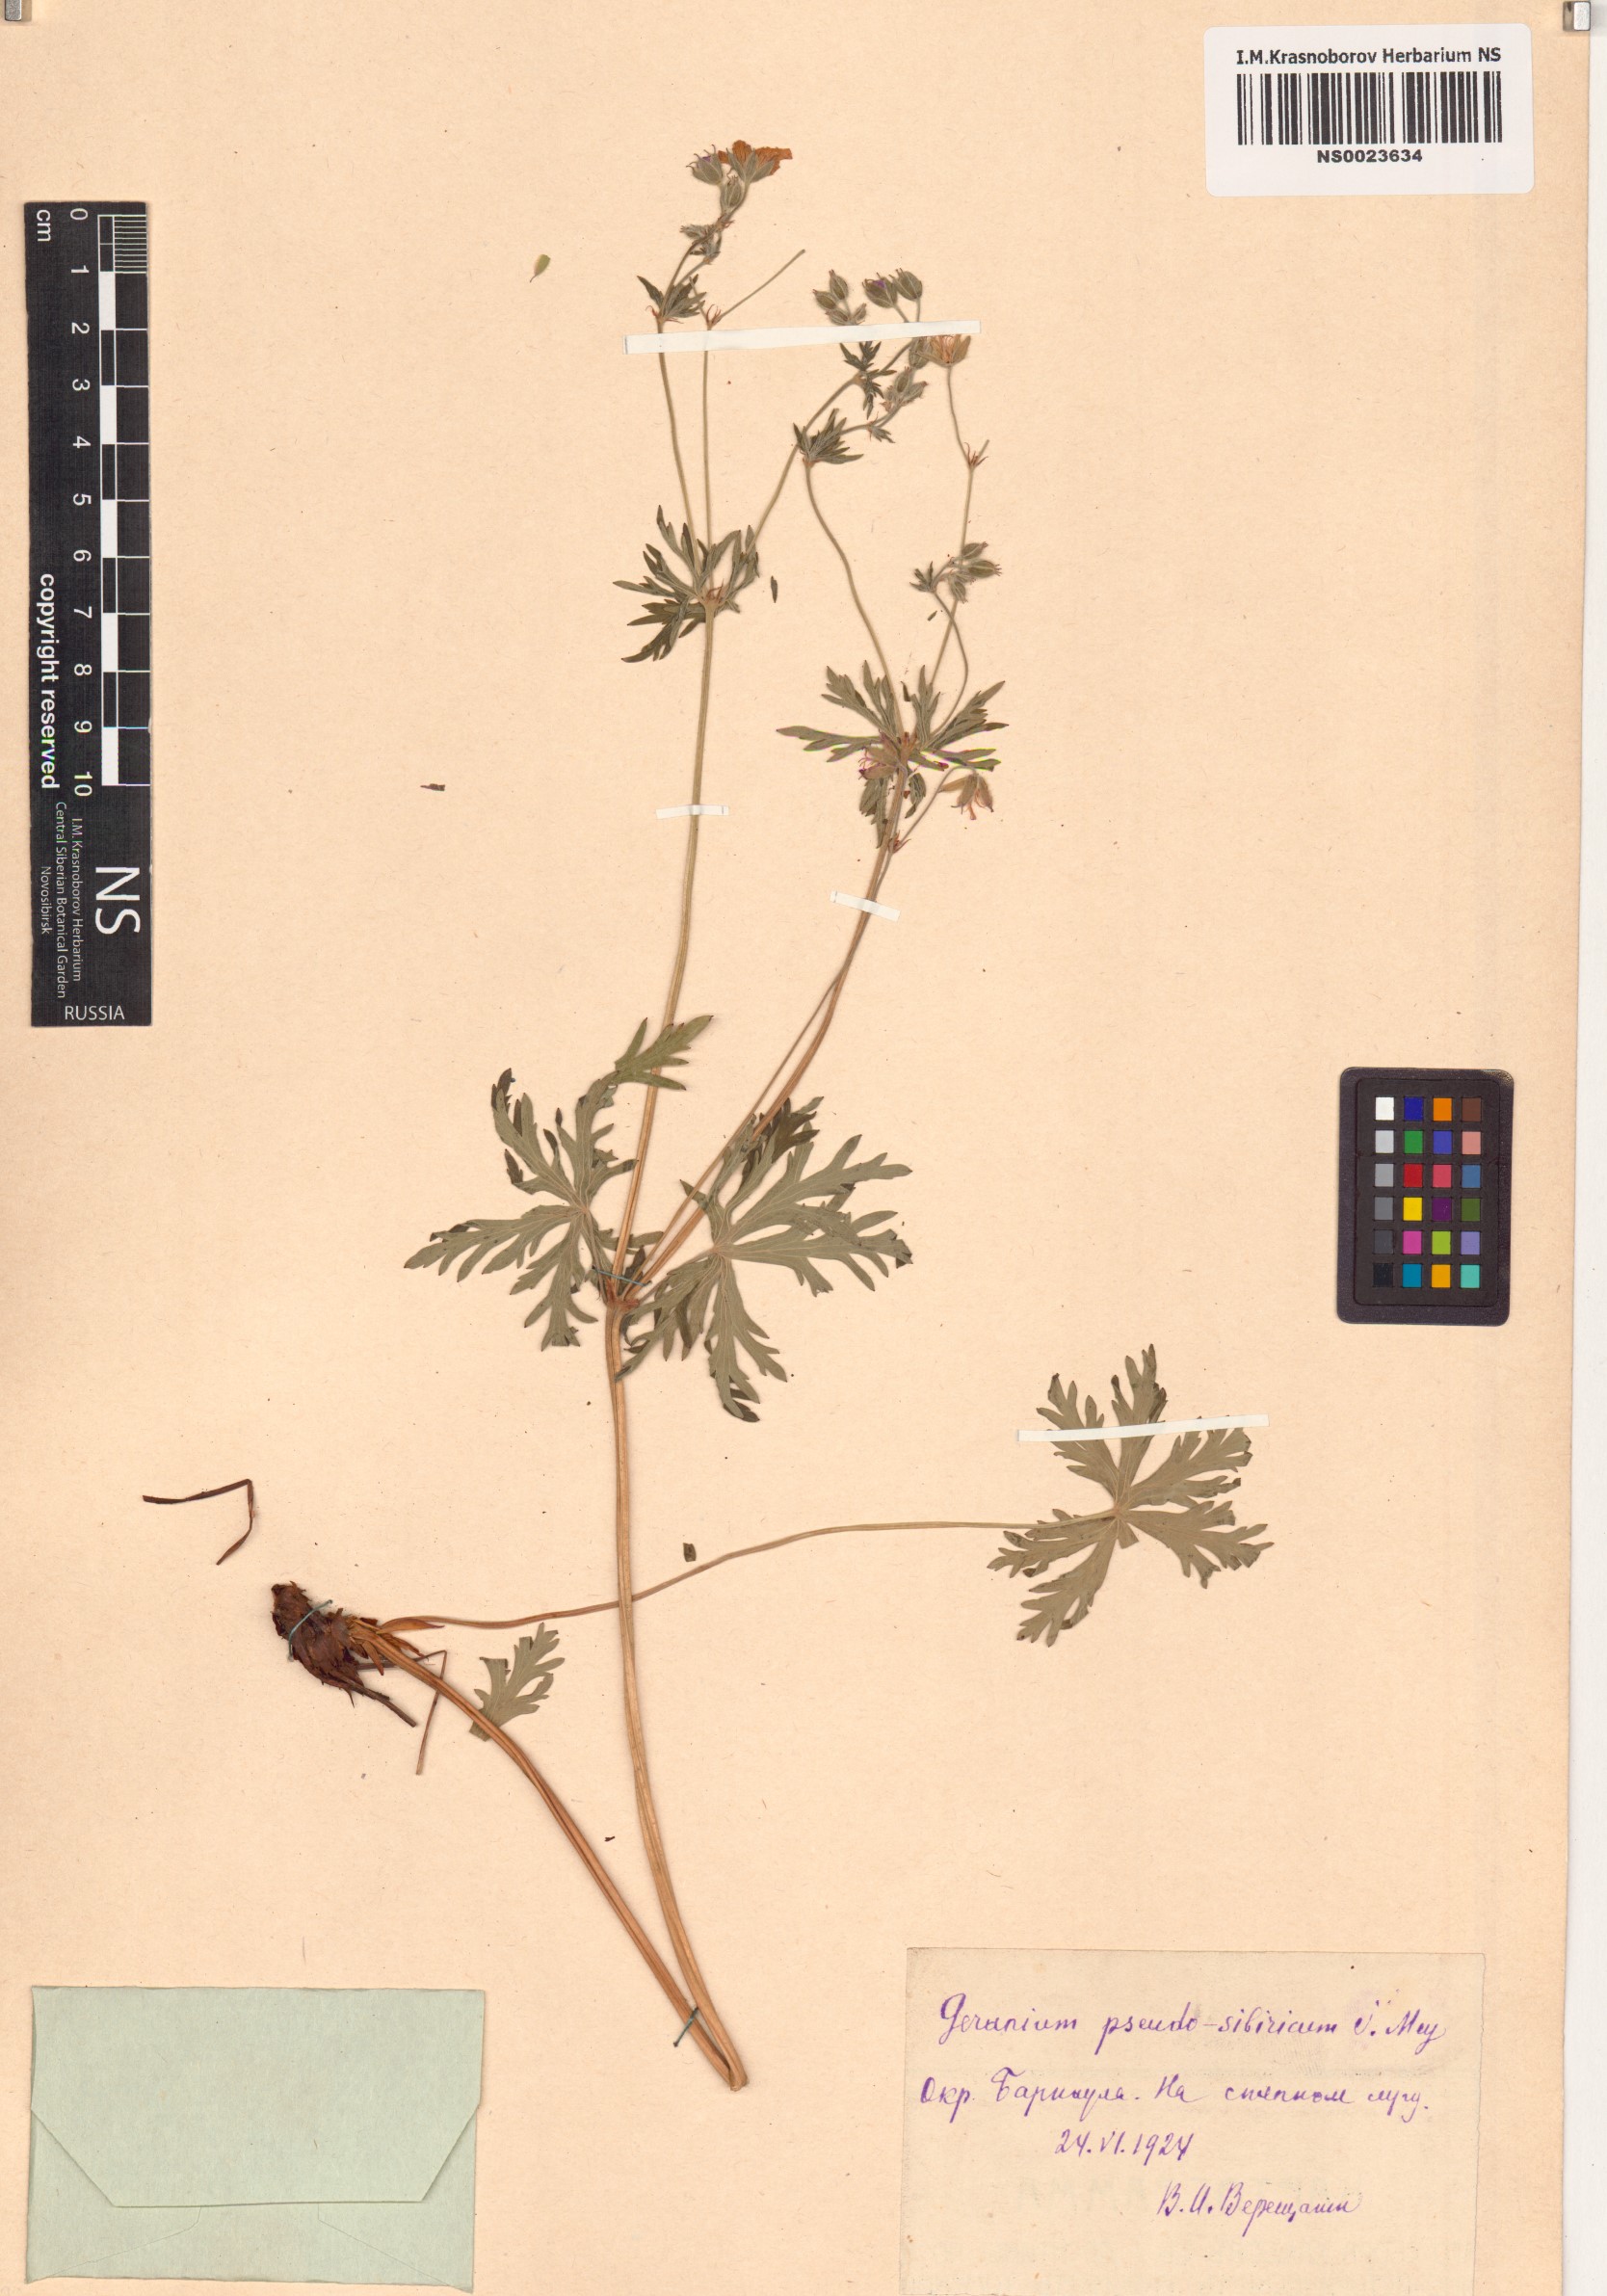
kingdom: Plantae
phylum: Tracheophyta
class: Magnoliopsida
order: Geraniales
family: Geraniaceae
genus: Geranium
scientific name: Geranium pseudosibiricum
